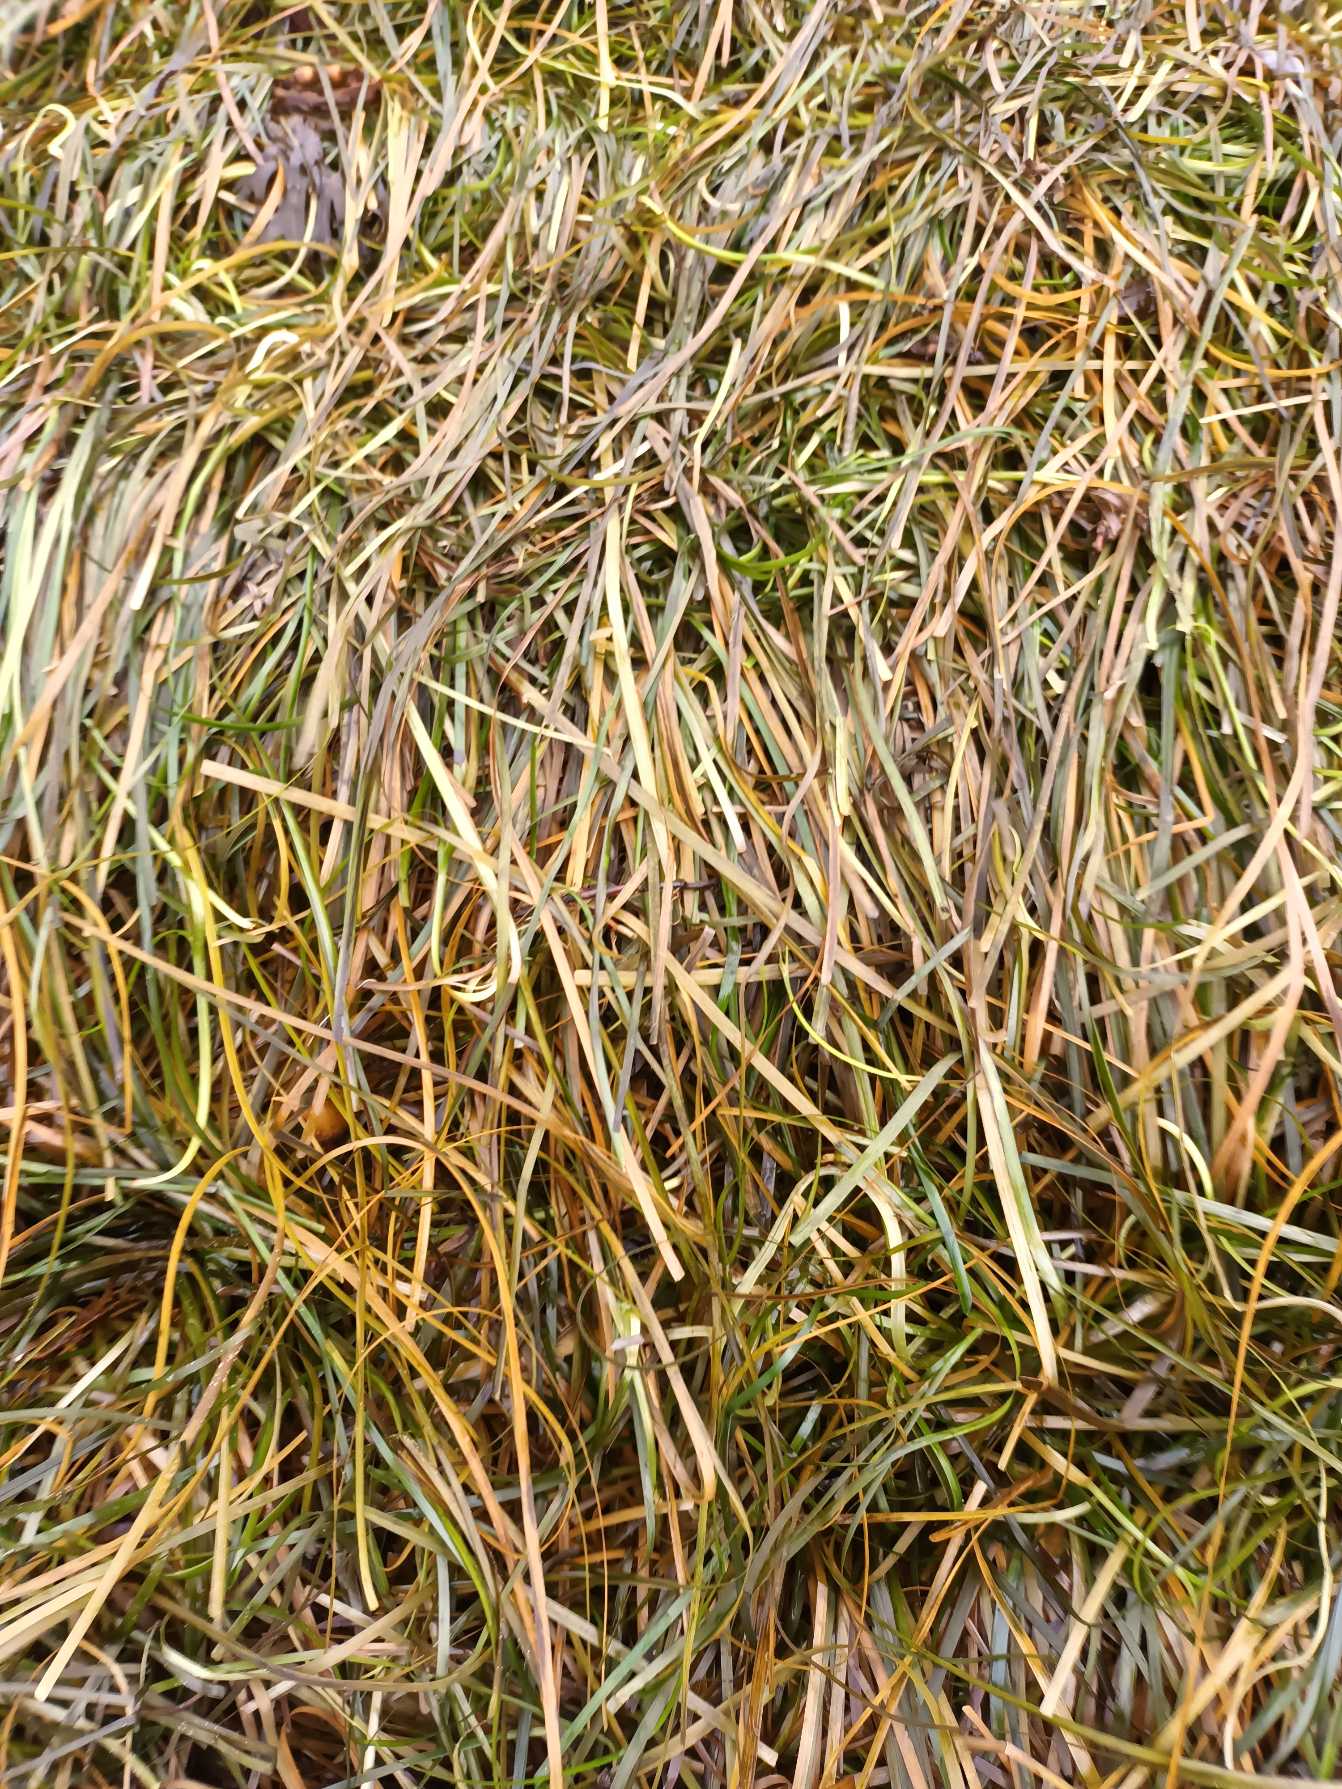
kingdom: Plantae
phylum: Tracheophyta
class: Liliopsida
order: Alismatales
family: Zosteraceae
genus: Zostera
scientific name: Zostera marina
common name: Almindelig bændeltang
